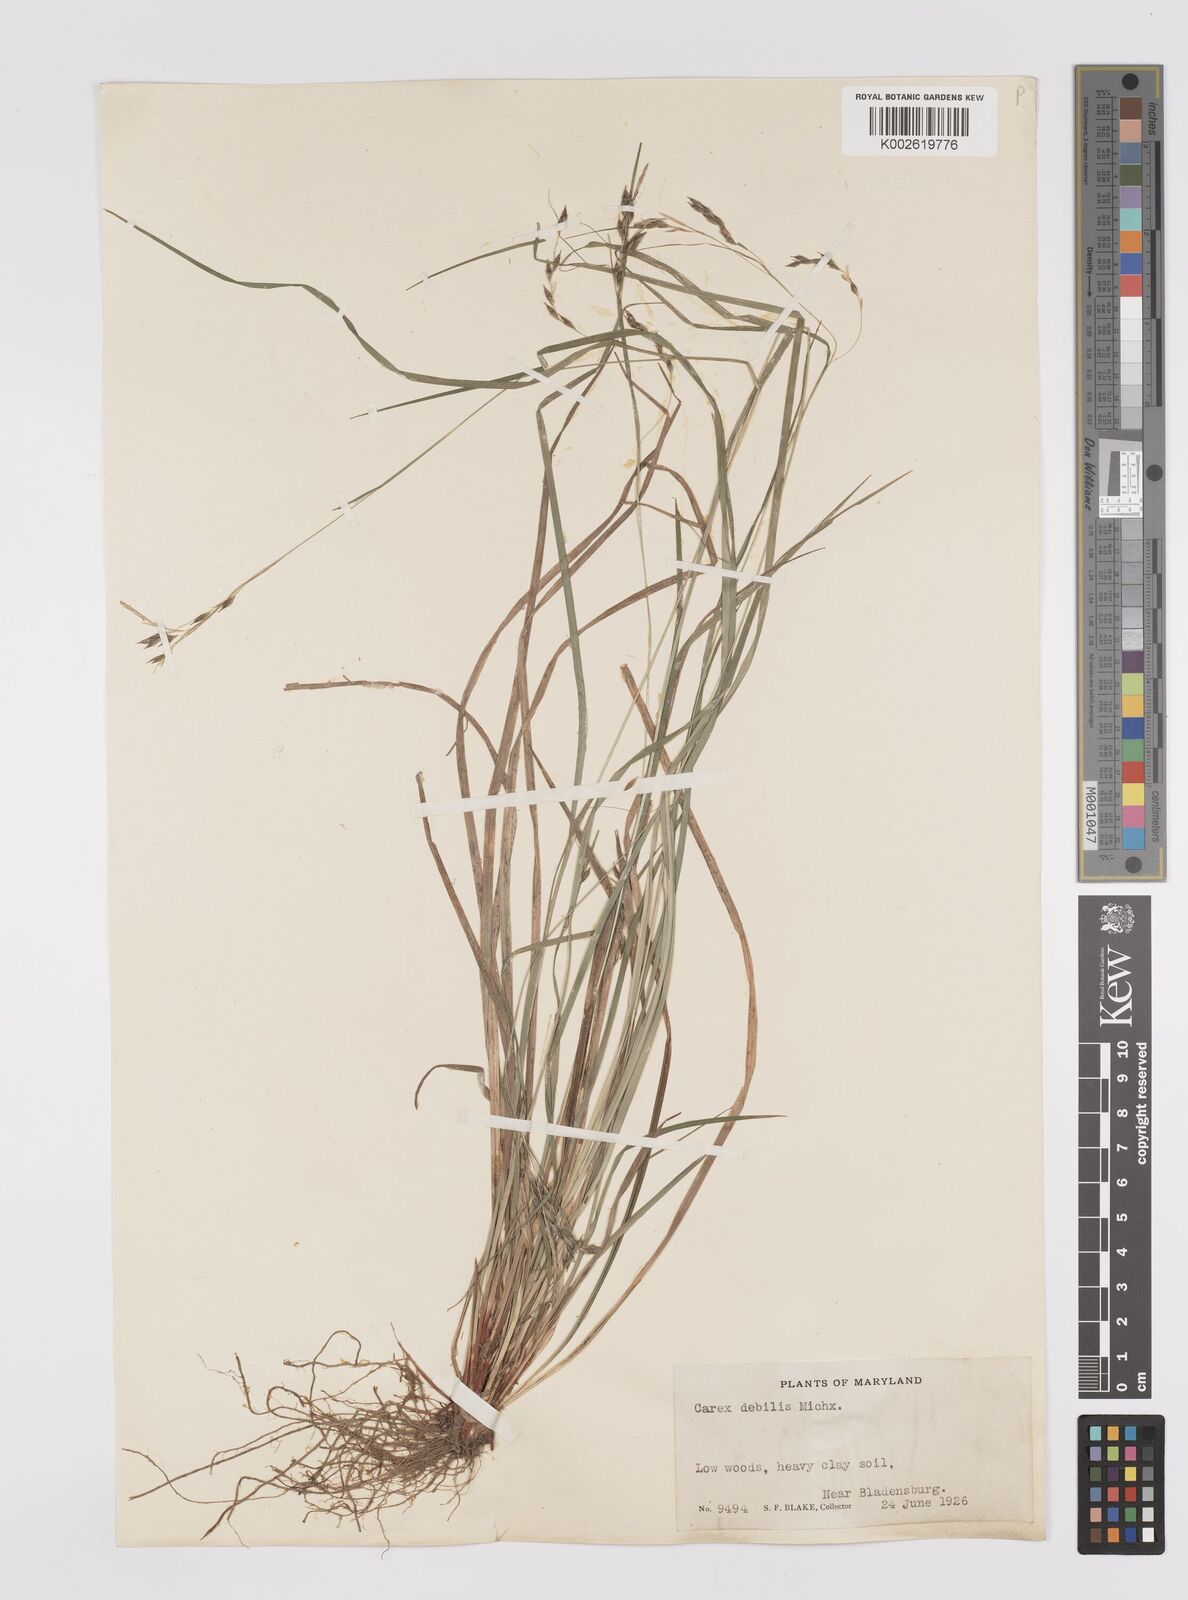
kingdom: Plantae
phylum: Tracheophyta
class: Liliopsida
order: Poales
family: Cyperaceae
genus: Carex
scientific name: Carex debilis
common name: White-edge sedge
